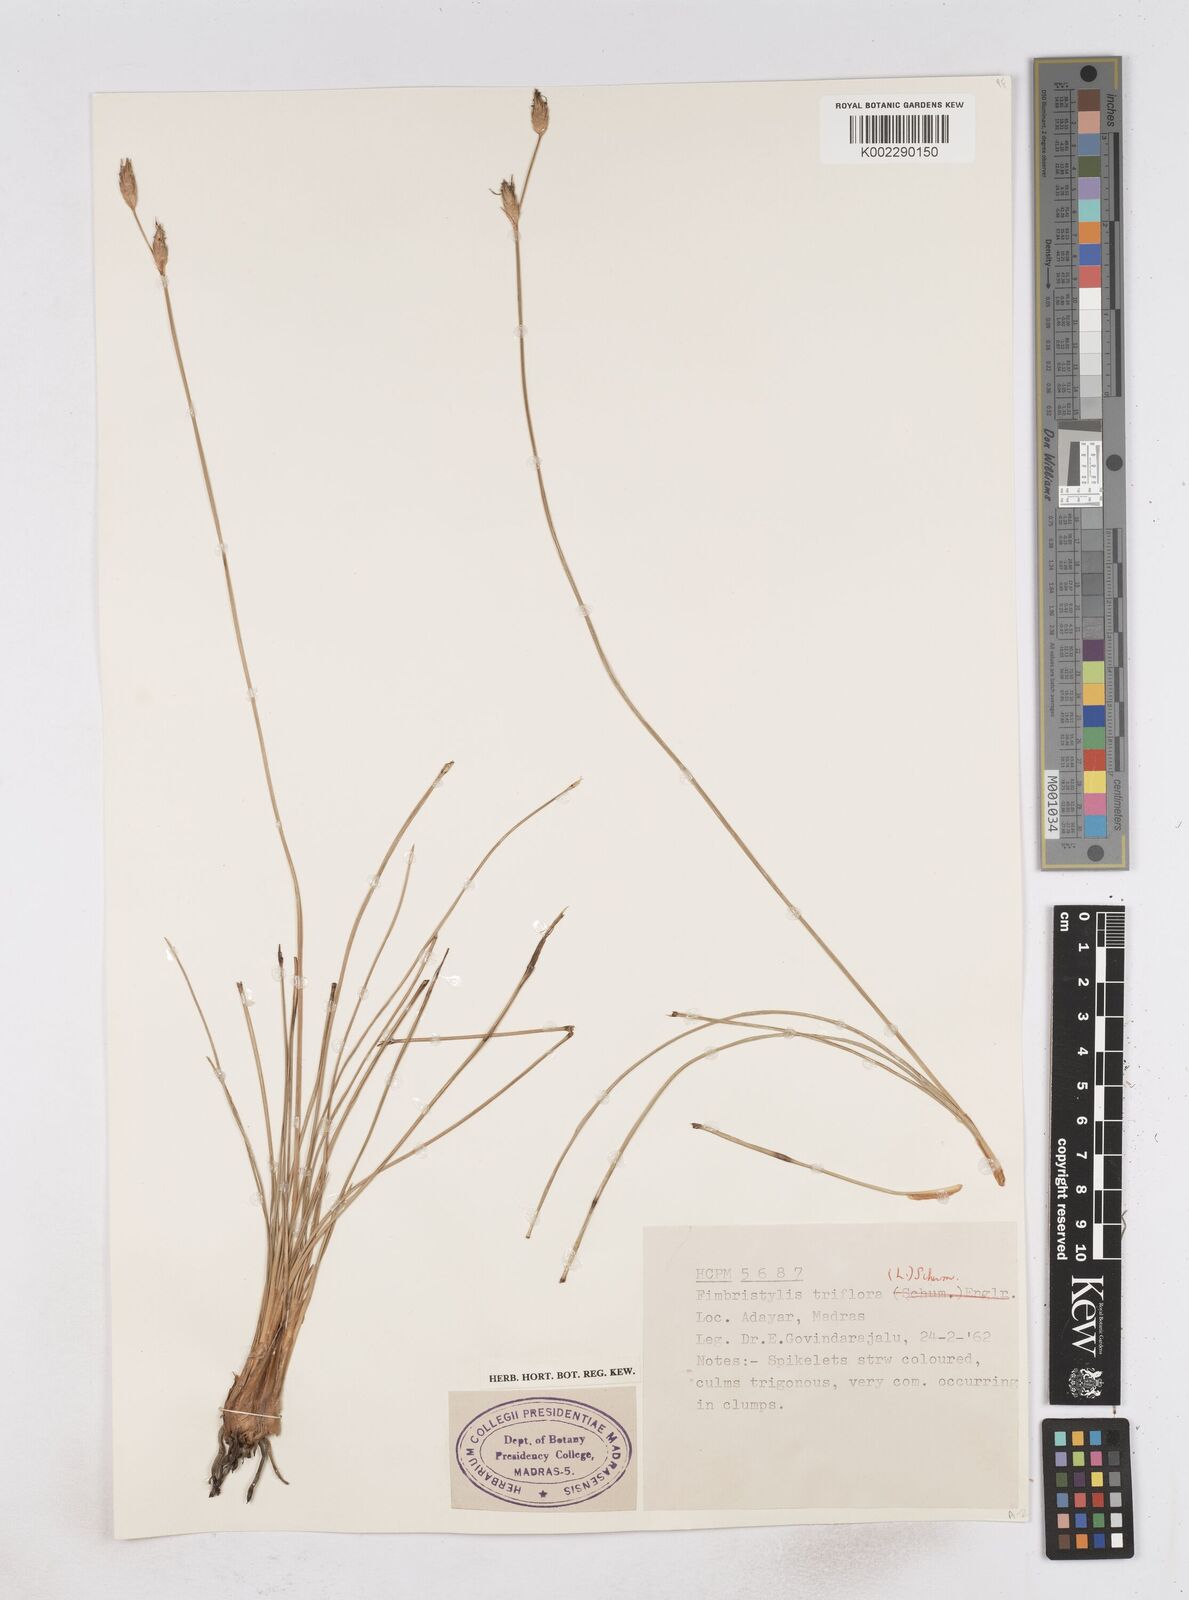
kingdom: Plantae
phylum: Tracheophyta
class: Liliopsida
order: Poales
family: Cyperaceae
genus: Abildgaardia
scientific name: Abildgaardia triflora
